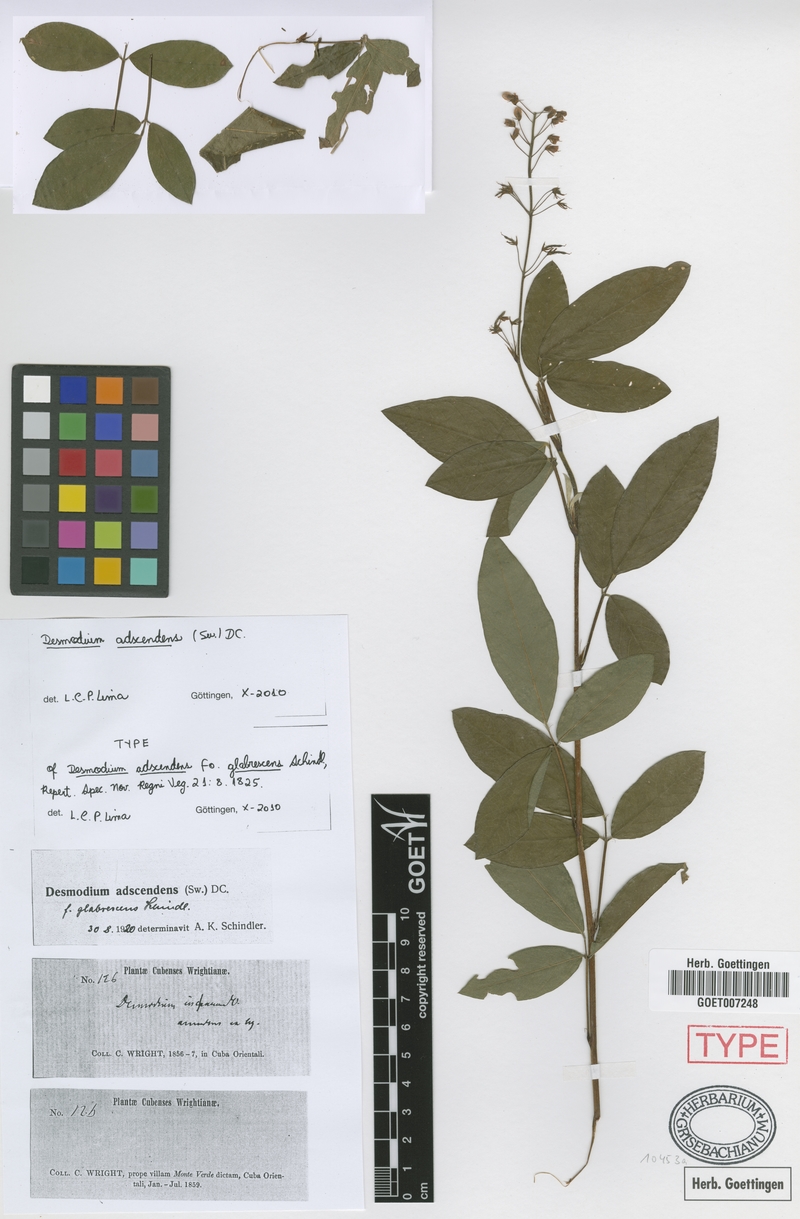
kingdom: Plantae
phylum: Tracheophyta
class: Magnoliopsida
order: Fabales
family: Fabaceae
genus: Grona
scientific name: Grona adscendens
